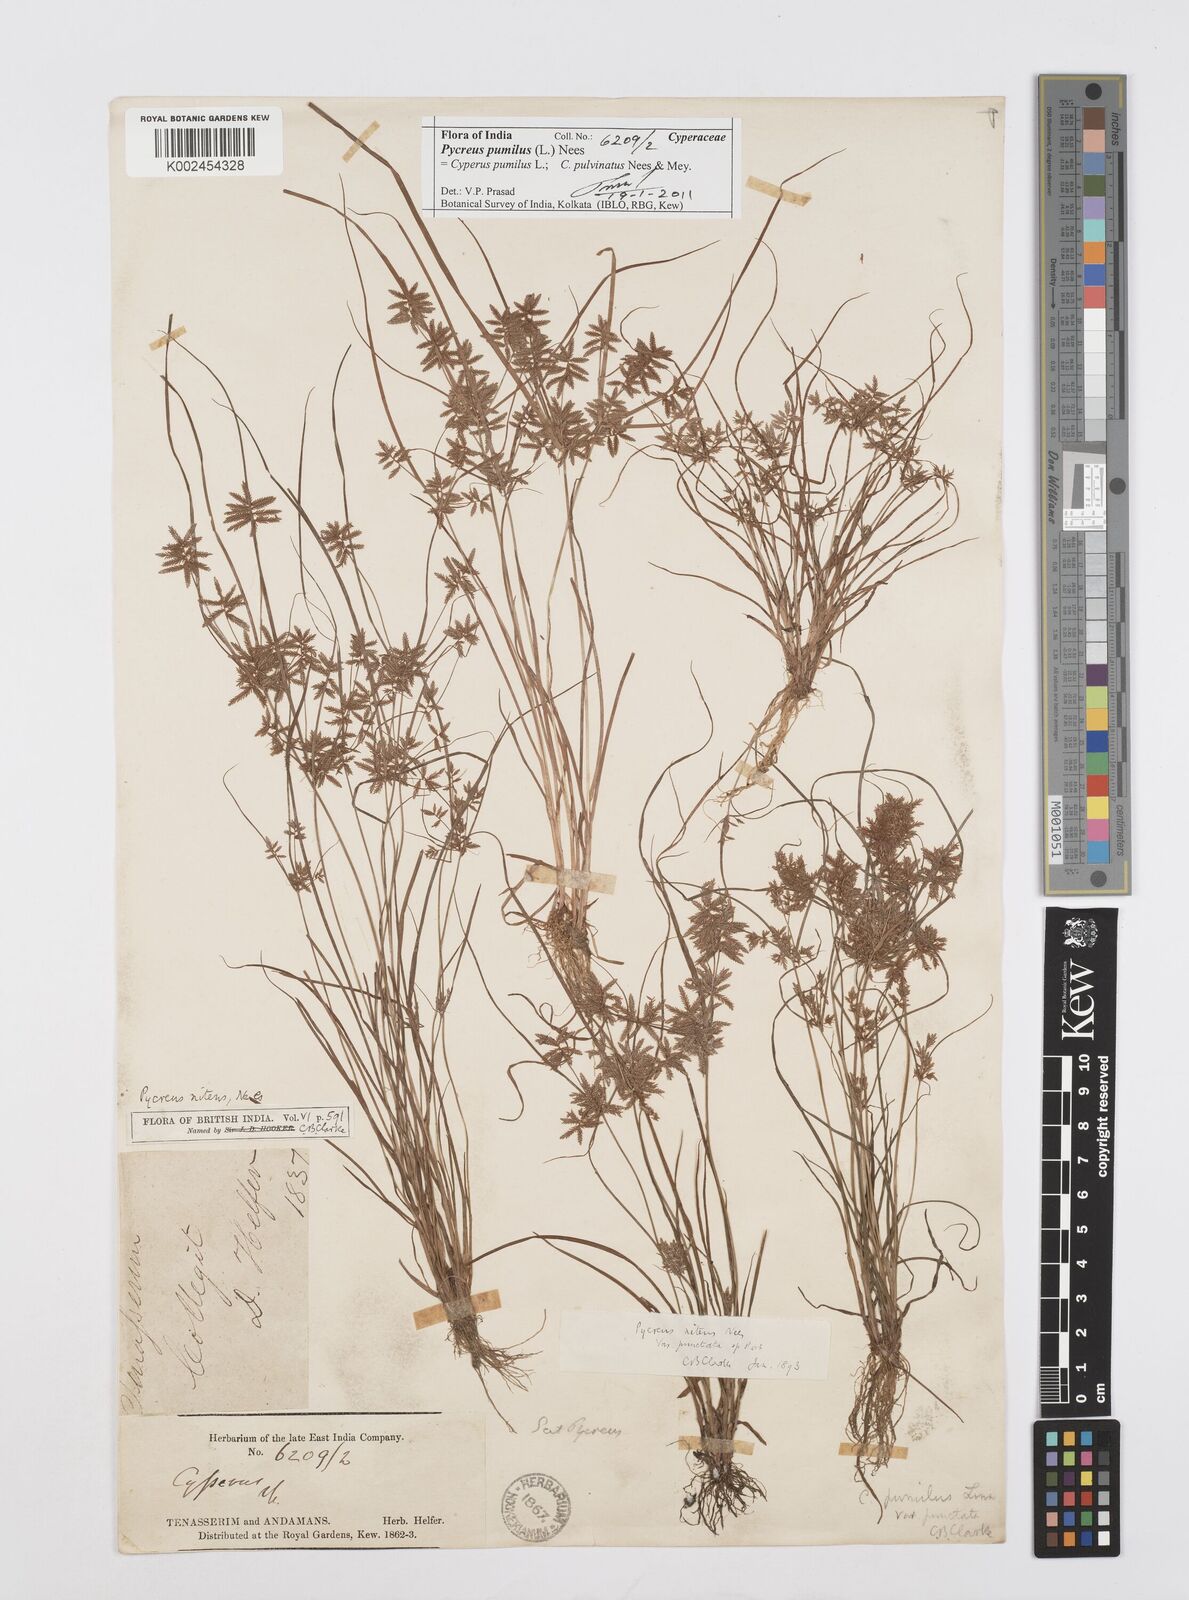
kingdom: Plantae
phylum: Tracheophyta
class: Liliopsida
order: Poales
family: Cyperaceae
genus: Cyperus
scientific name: Cyperus pumilus
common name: Low flatsedge
